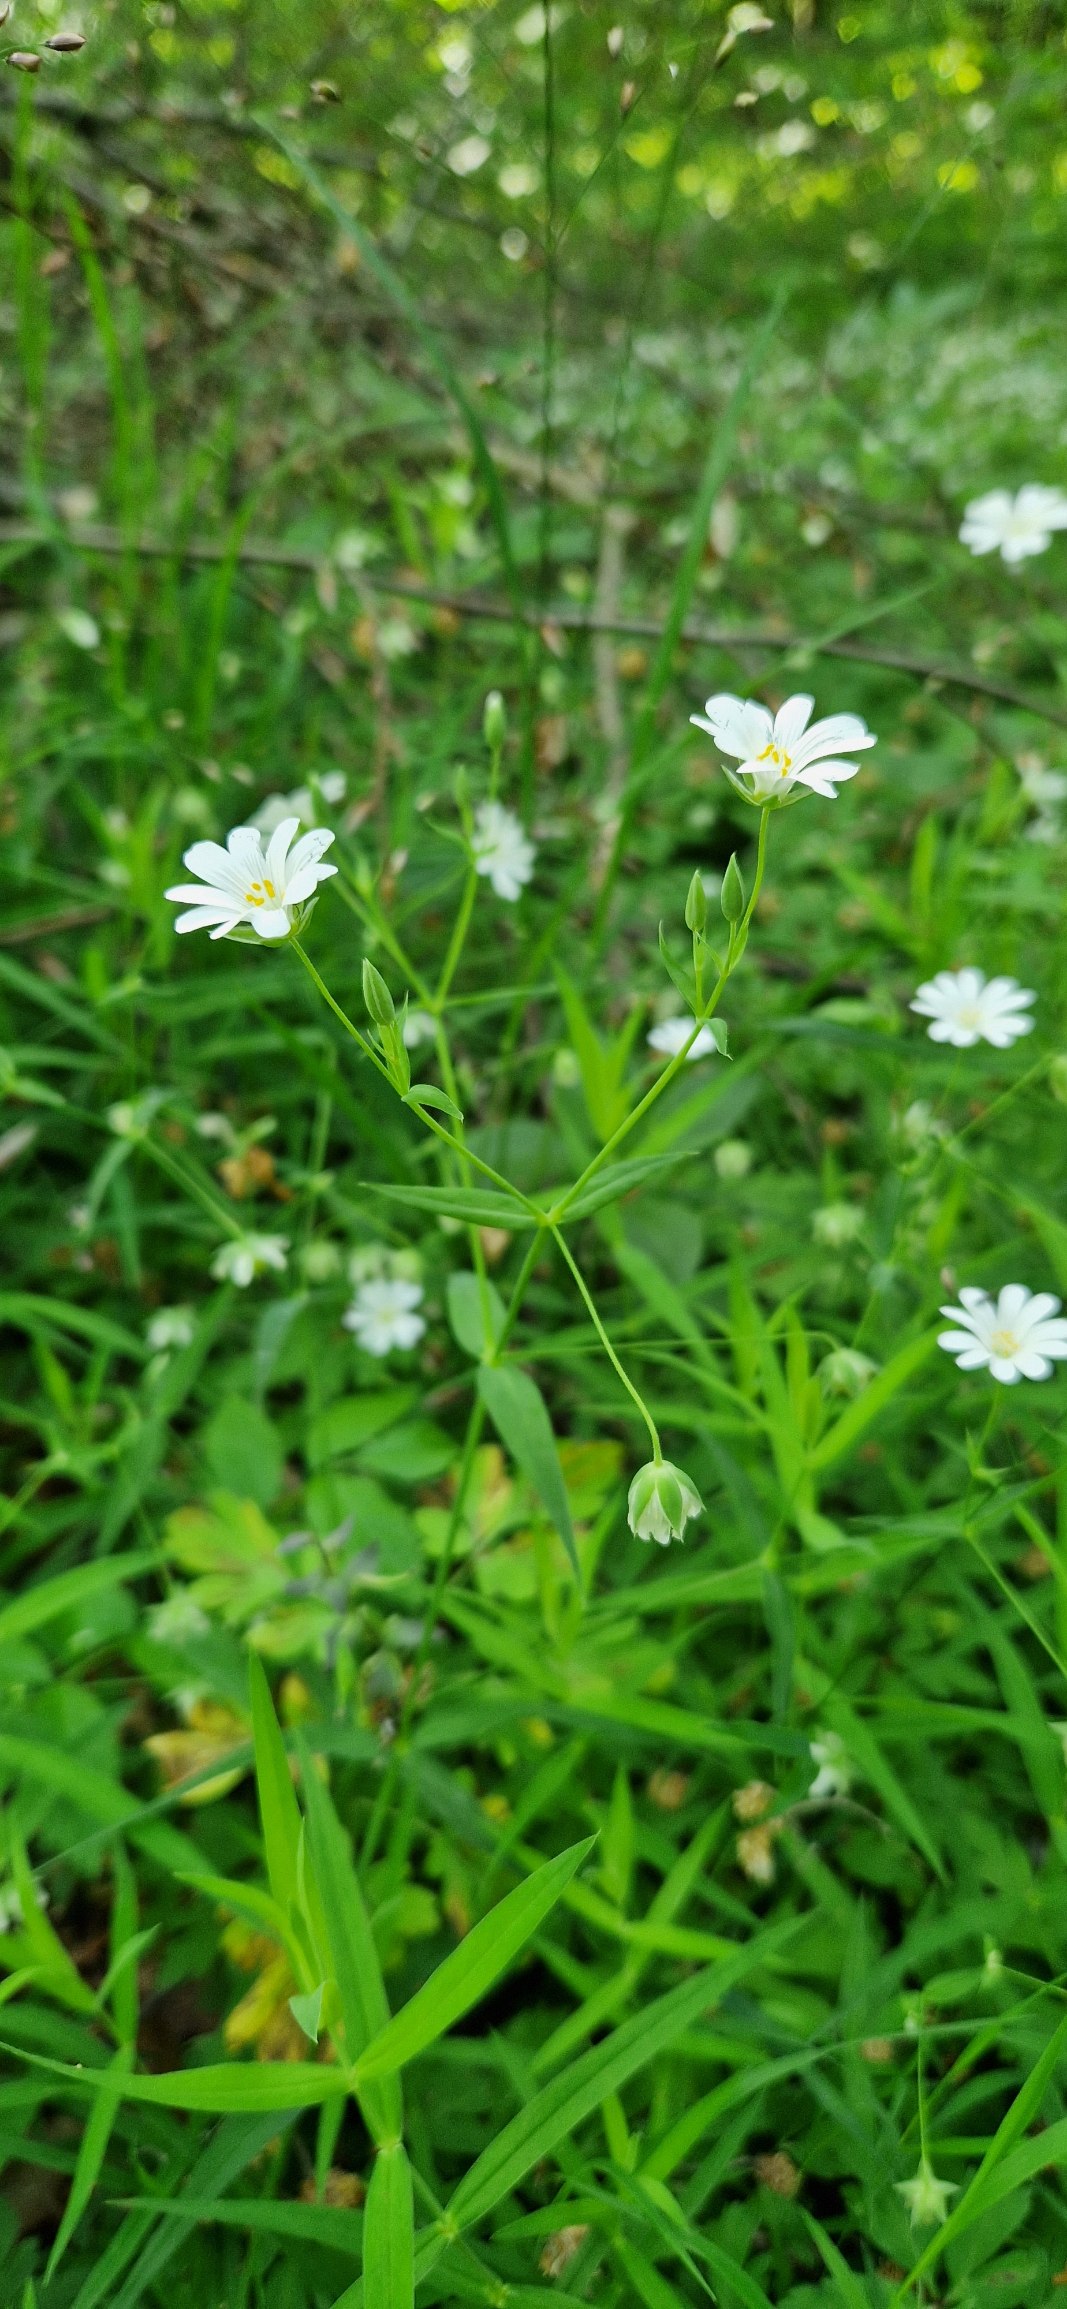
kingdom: Plantae
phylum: Tracheophyta
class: Magnoliopsida
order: Caryophyllales
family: Caryophyllaceae
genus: Rabelera
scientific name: Rabelera holostea
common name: Stor fladstjerne
